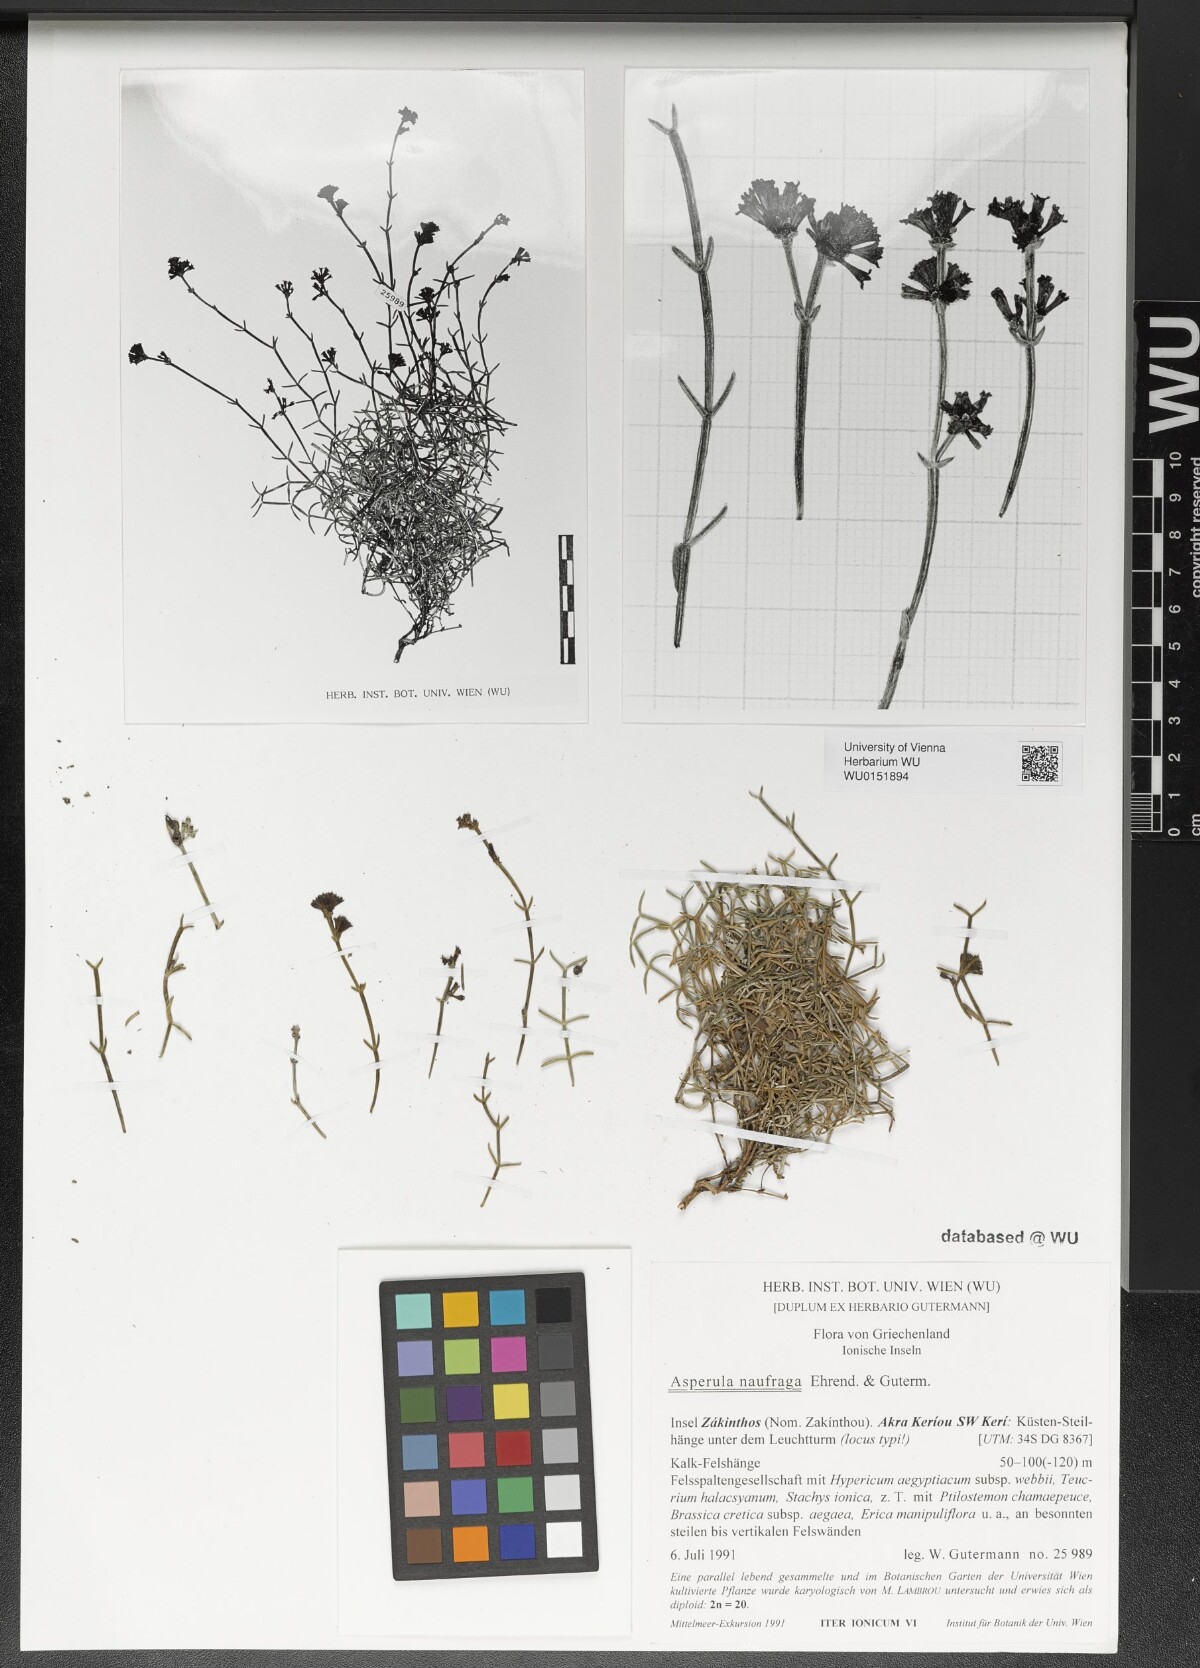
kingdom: Plantae
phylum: Tracheophyta
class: Magnoliopsida
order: Gentianales
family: Rubiaceae
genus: Cynanchica
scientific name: Cynanchica naufraga
